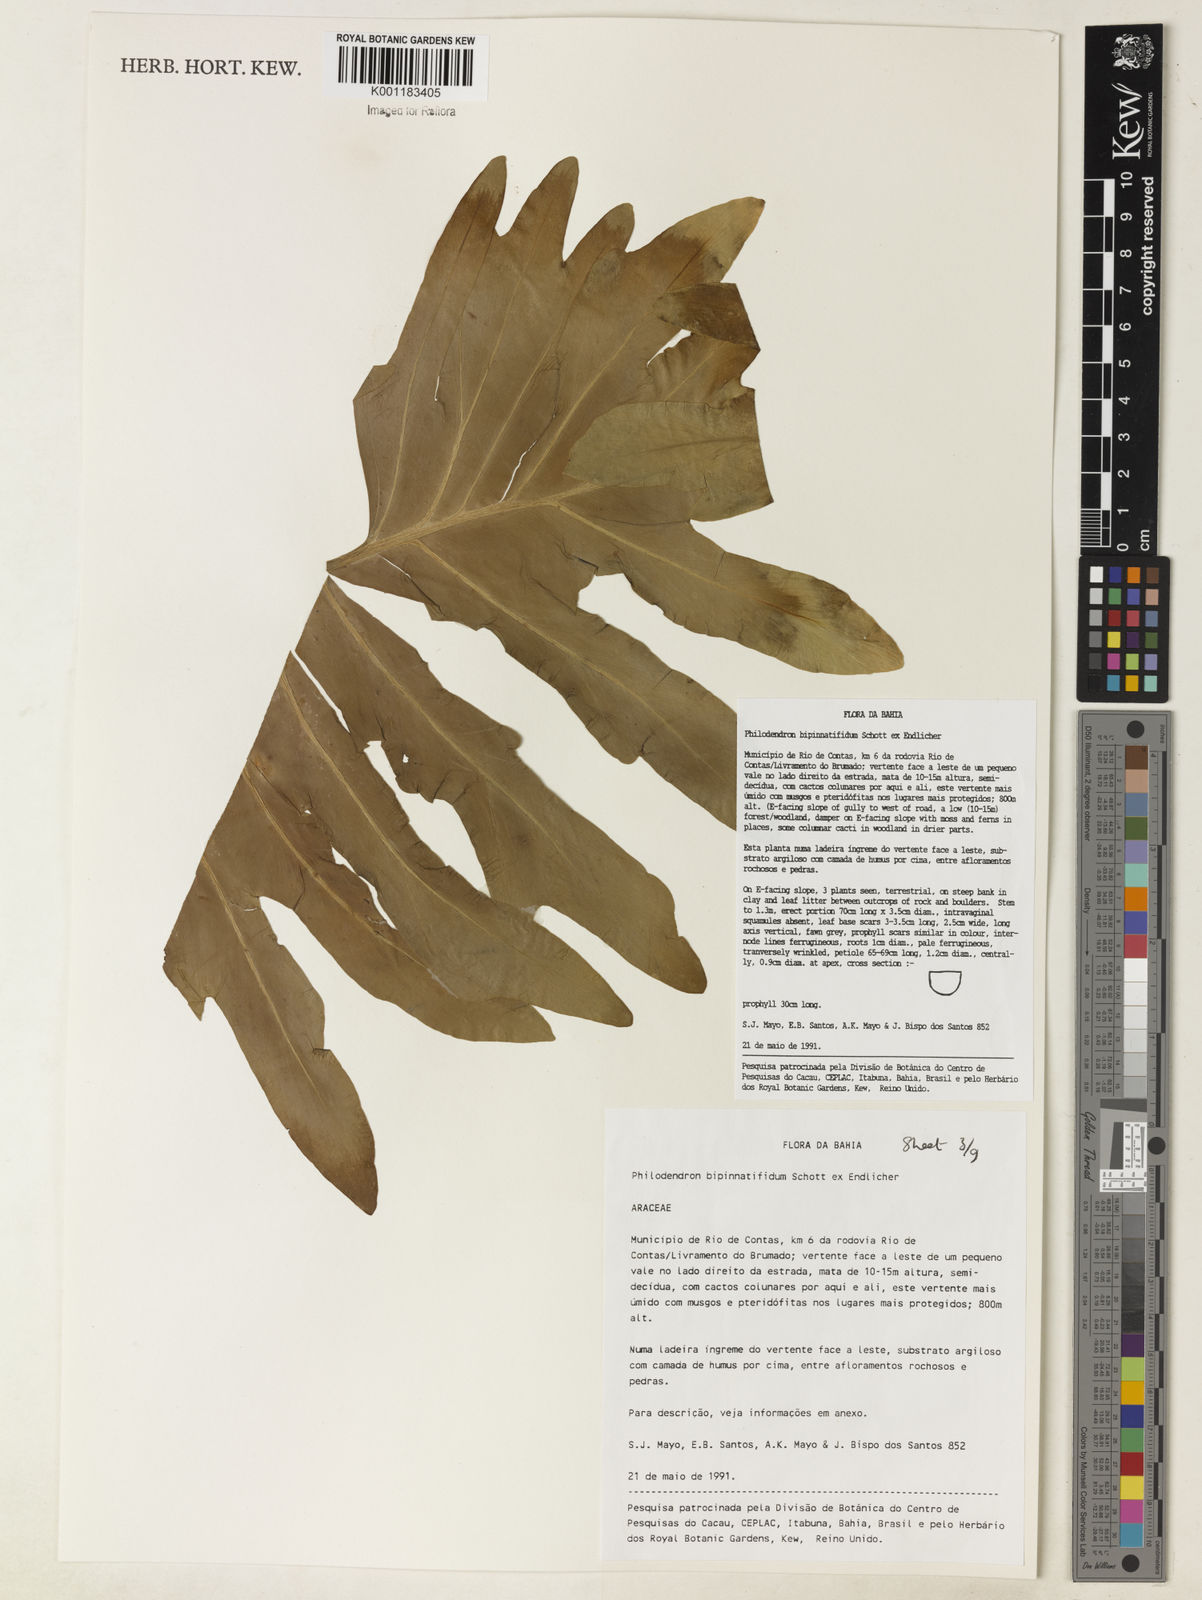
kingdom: Plantae
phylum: Tracheophyta
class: Liliopsida
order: Alismatales
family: Araceae
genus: Philodendron
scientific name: Philodendron
